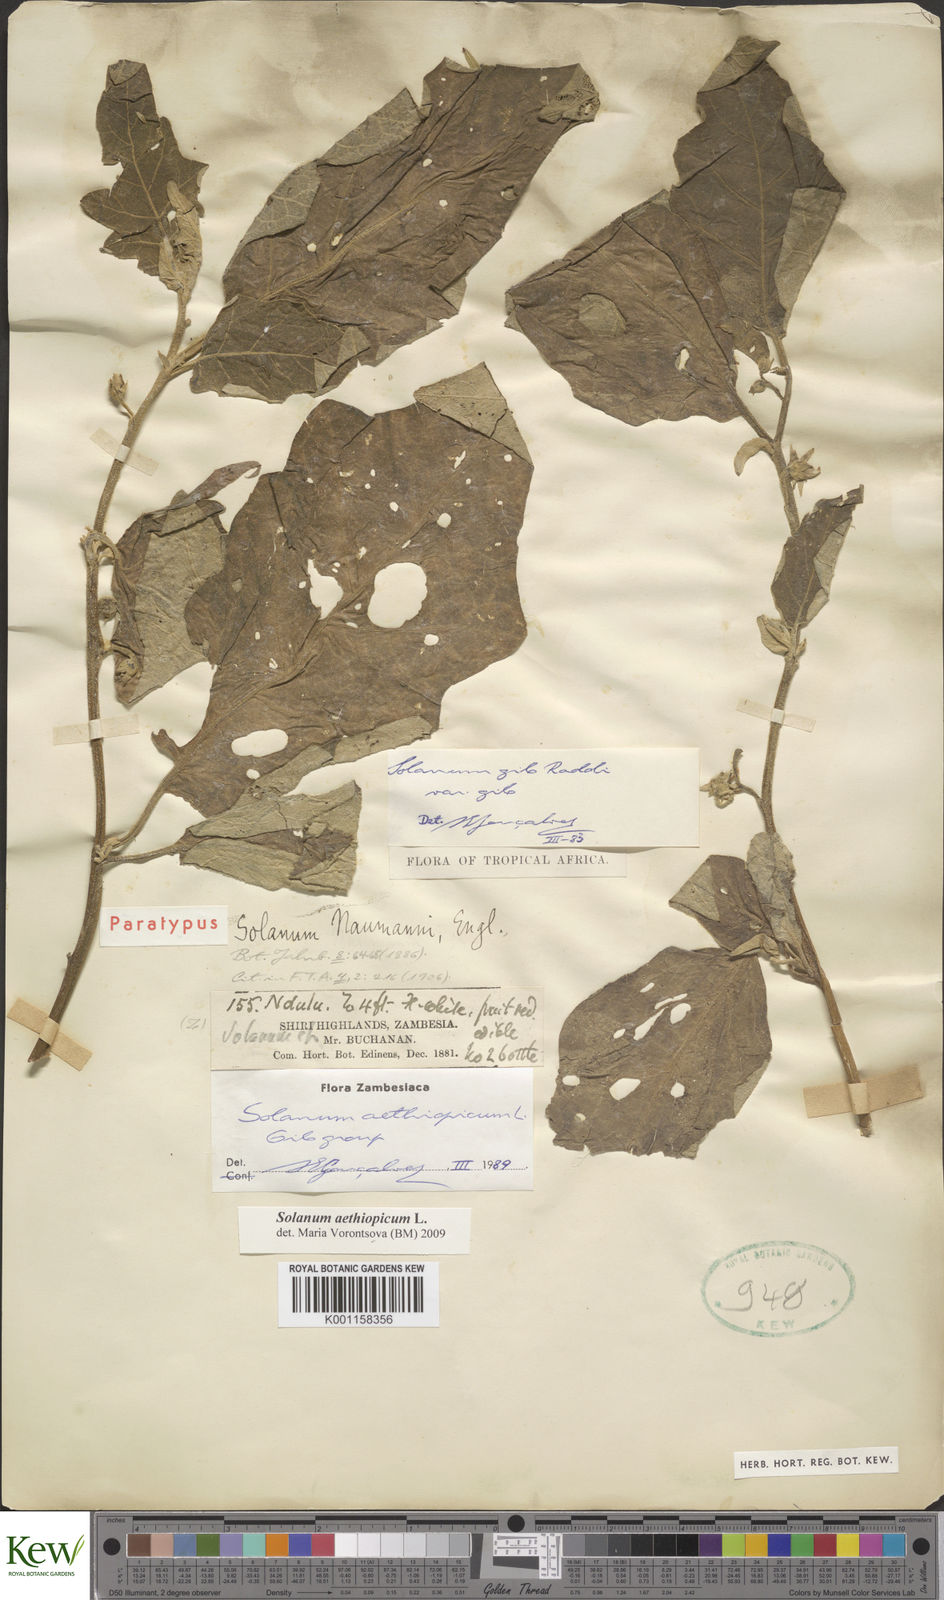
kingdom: Plantae
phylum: Tracheophyta
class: Magnoliopsida
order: Solanales
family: Solanaceae
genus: Solanum
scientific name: Solanum aethiopicum
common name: Gilo
